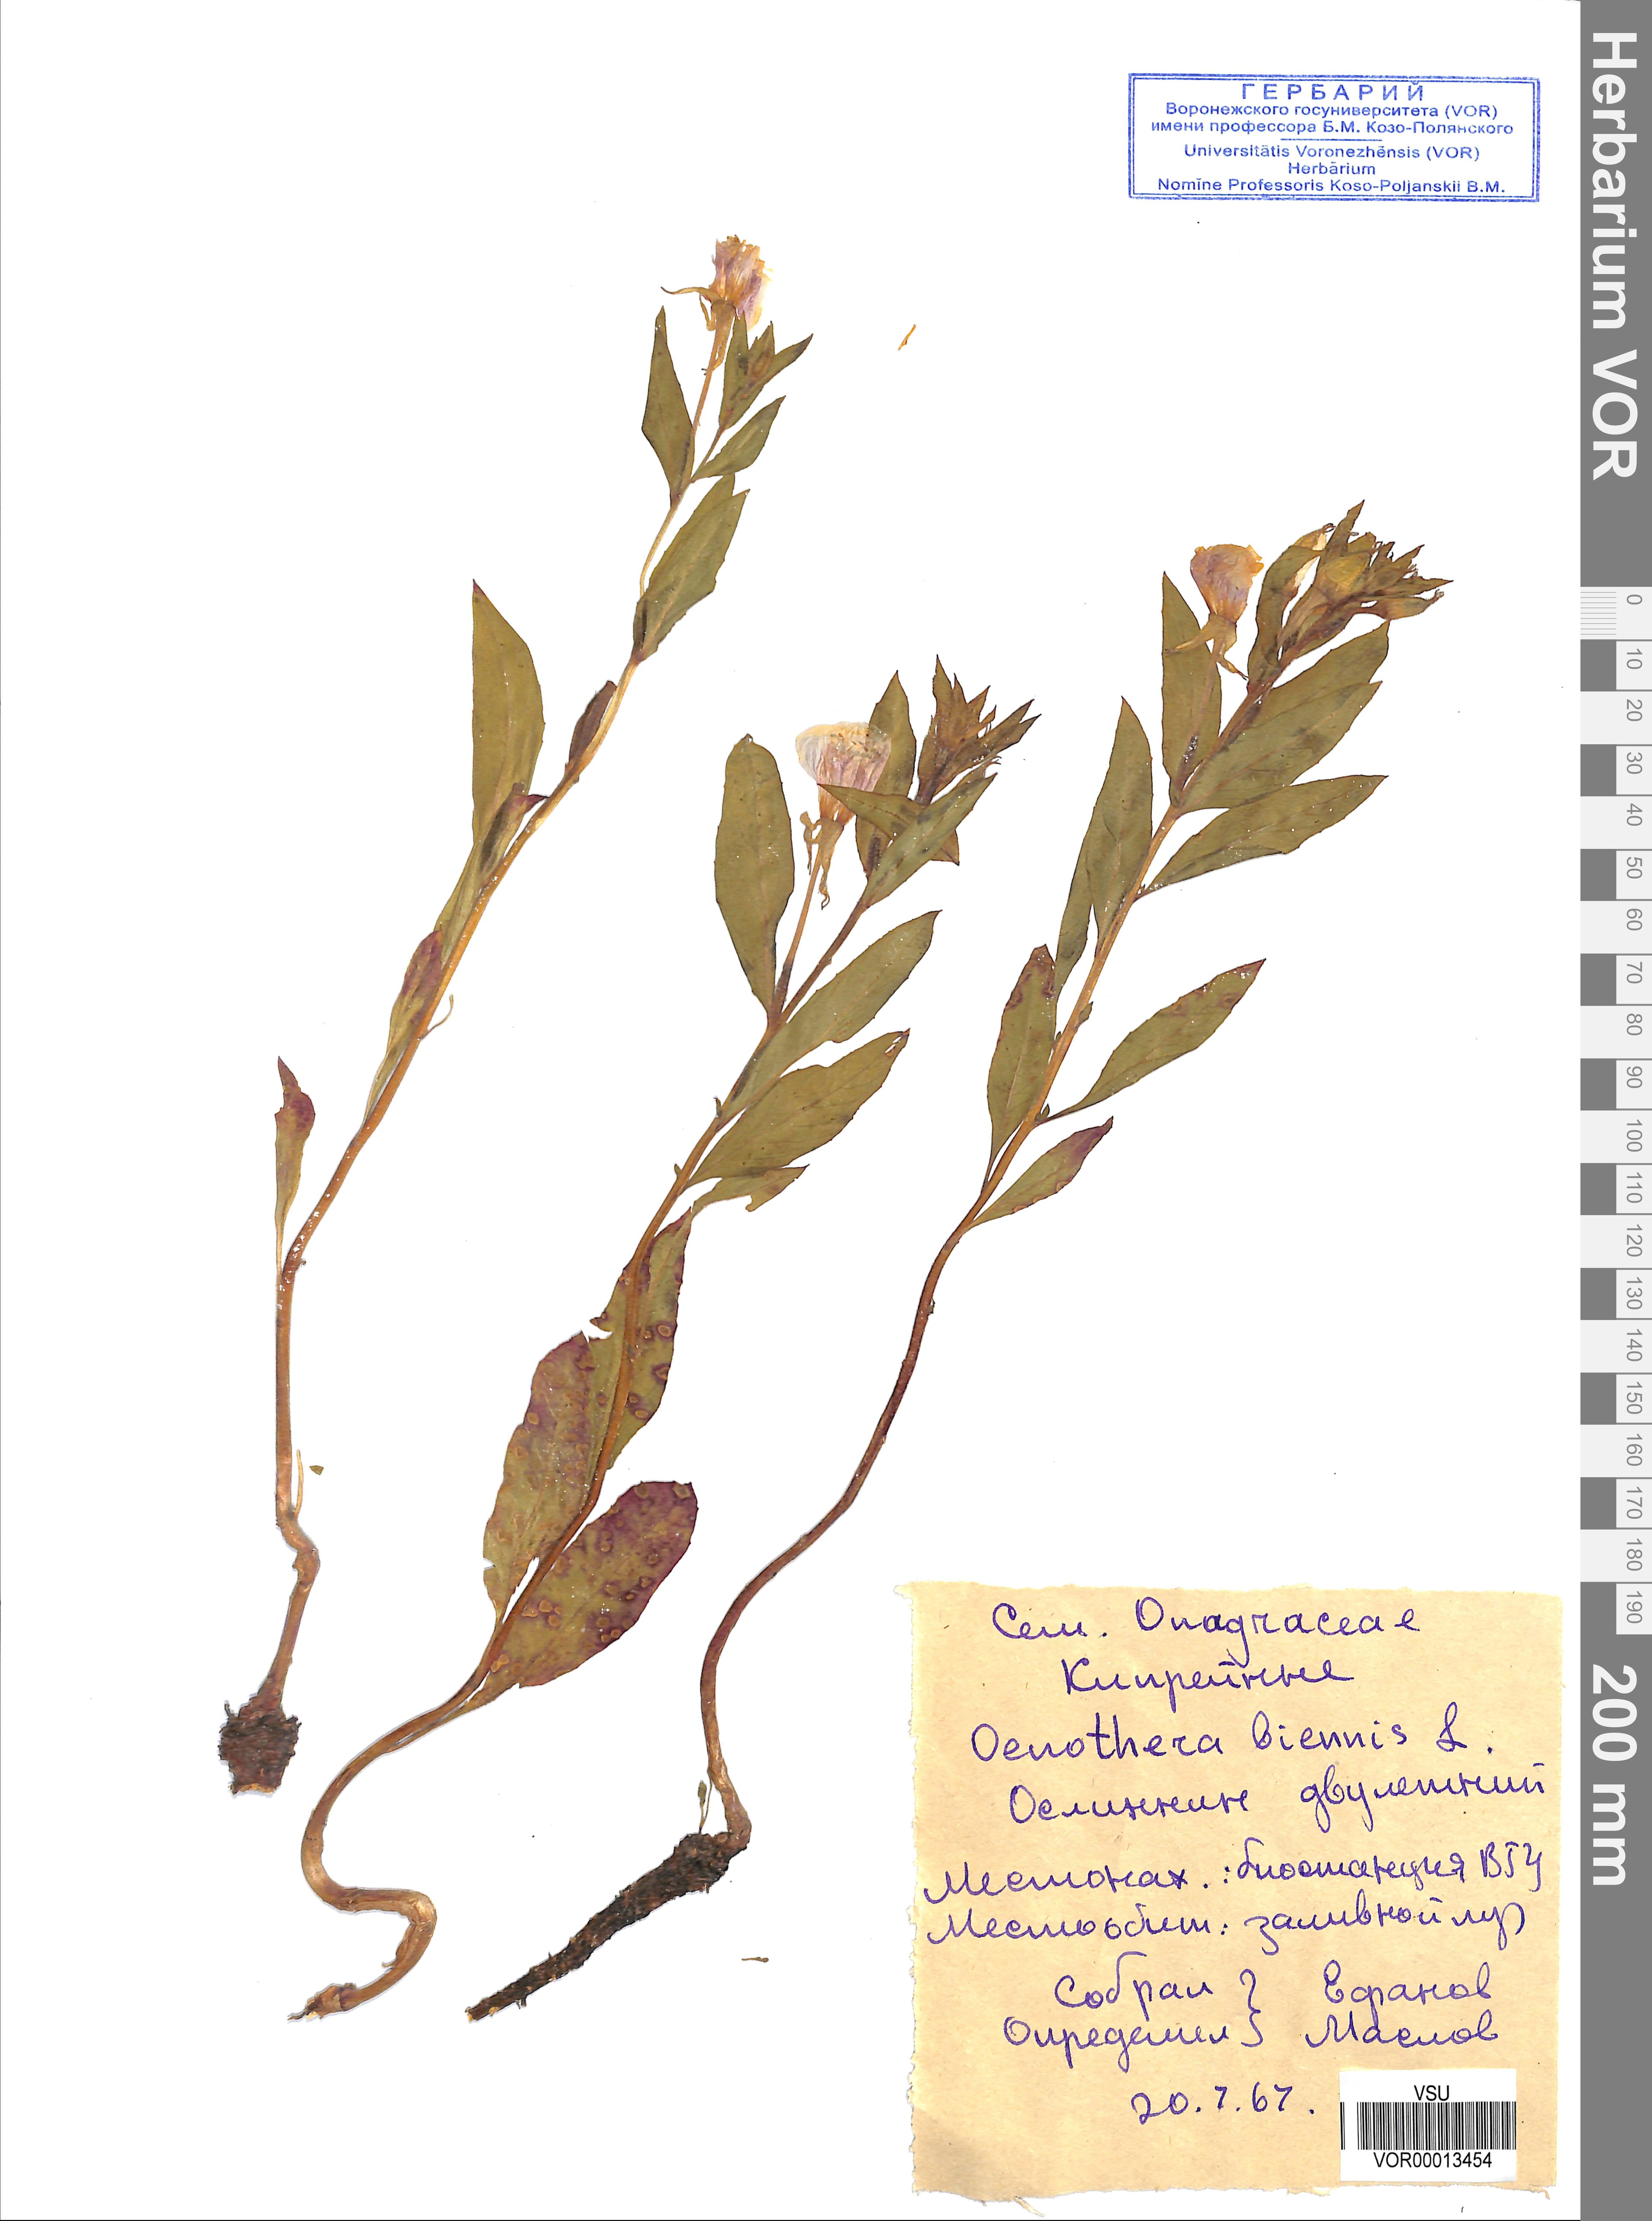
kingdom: Plantae
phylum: Tracheophyta
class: Magnoliopsida
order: Myrtales
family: Onagraceae
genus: Oenothera
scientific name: Oenothera biennis
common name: Common evening-primrose
